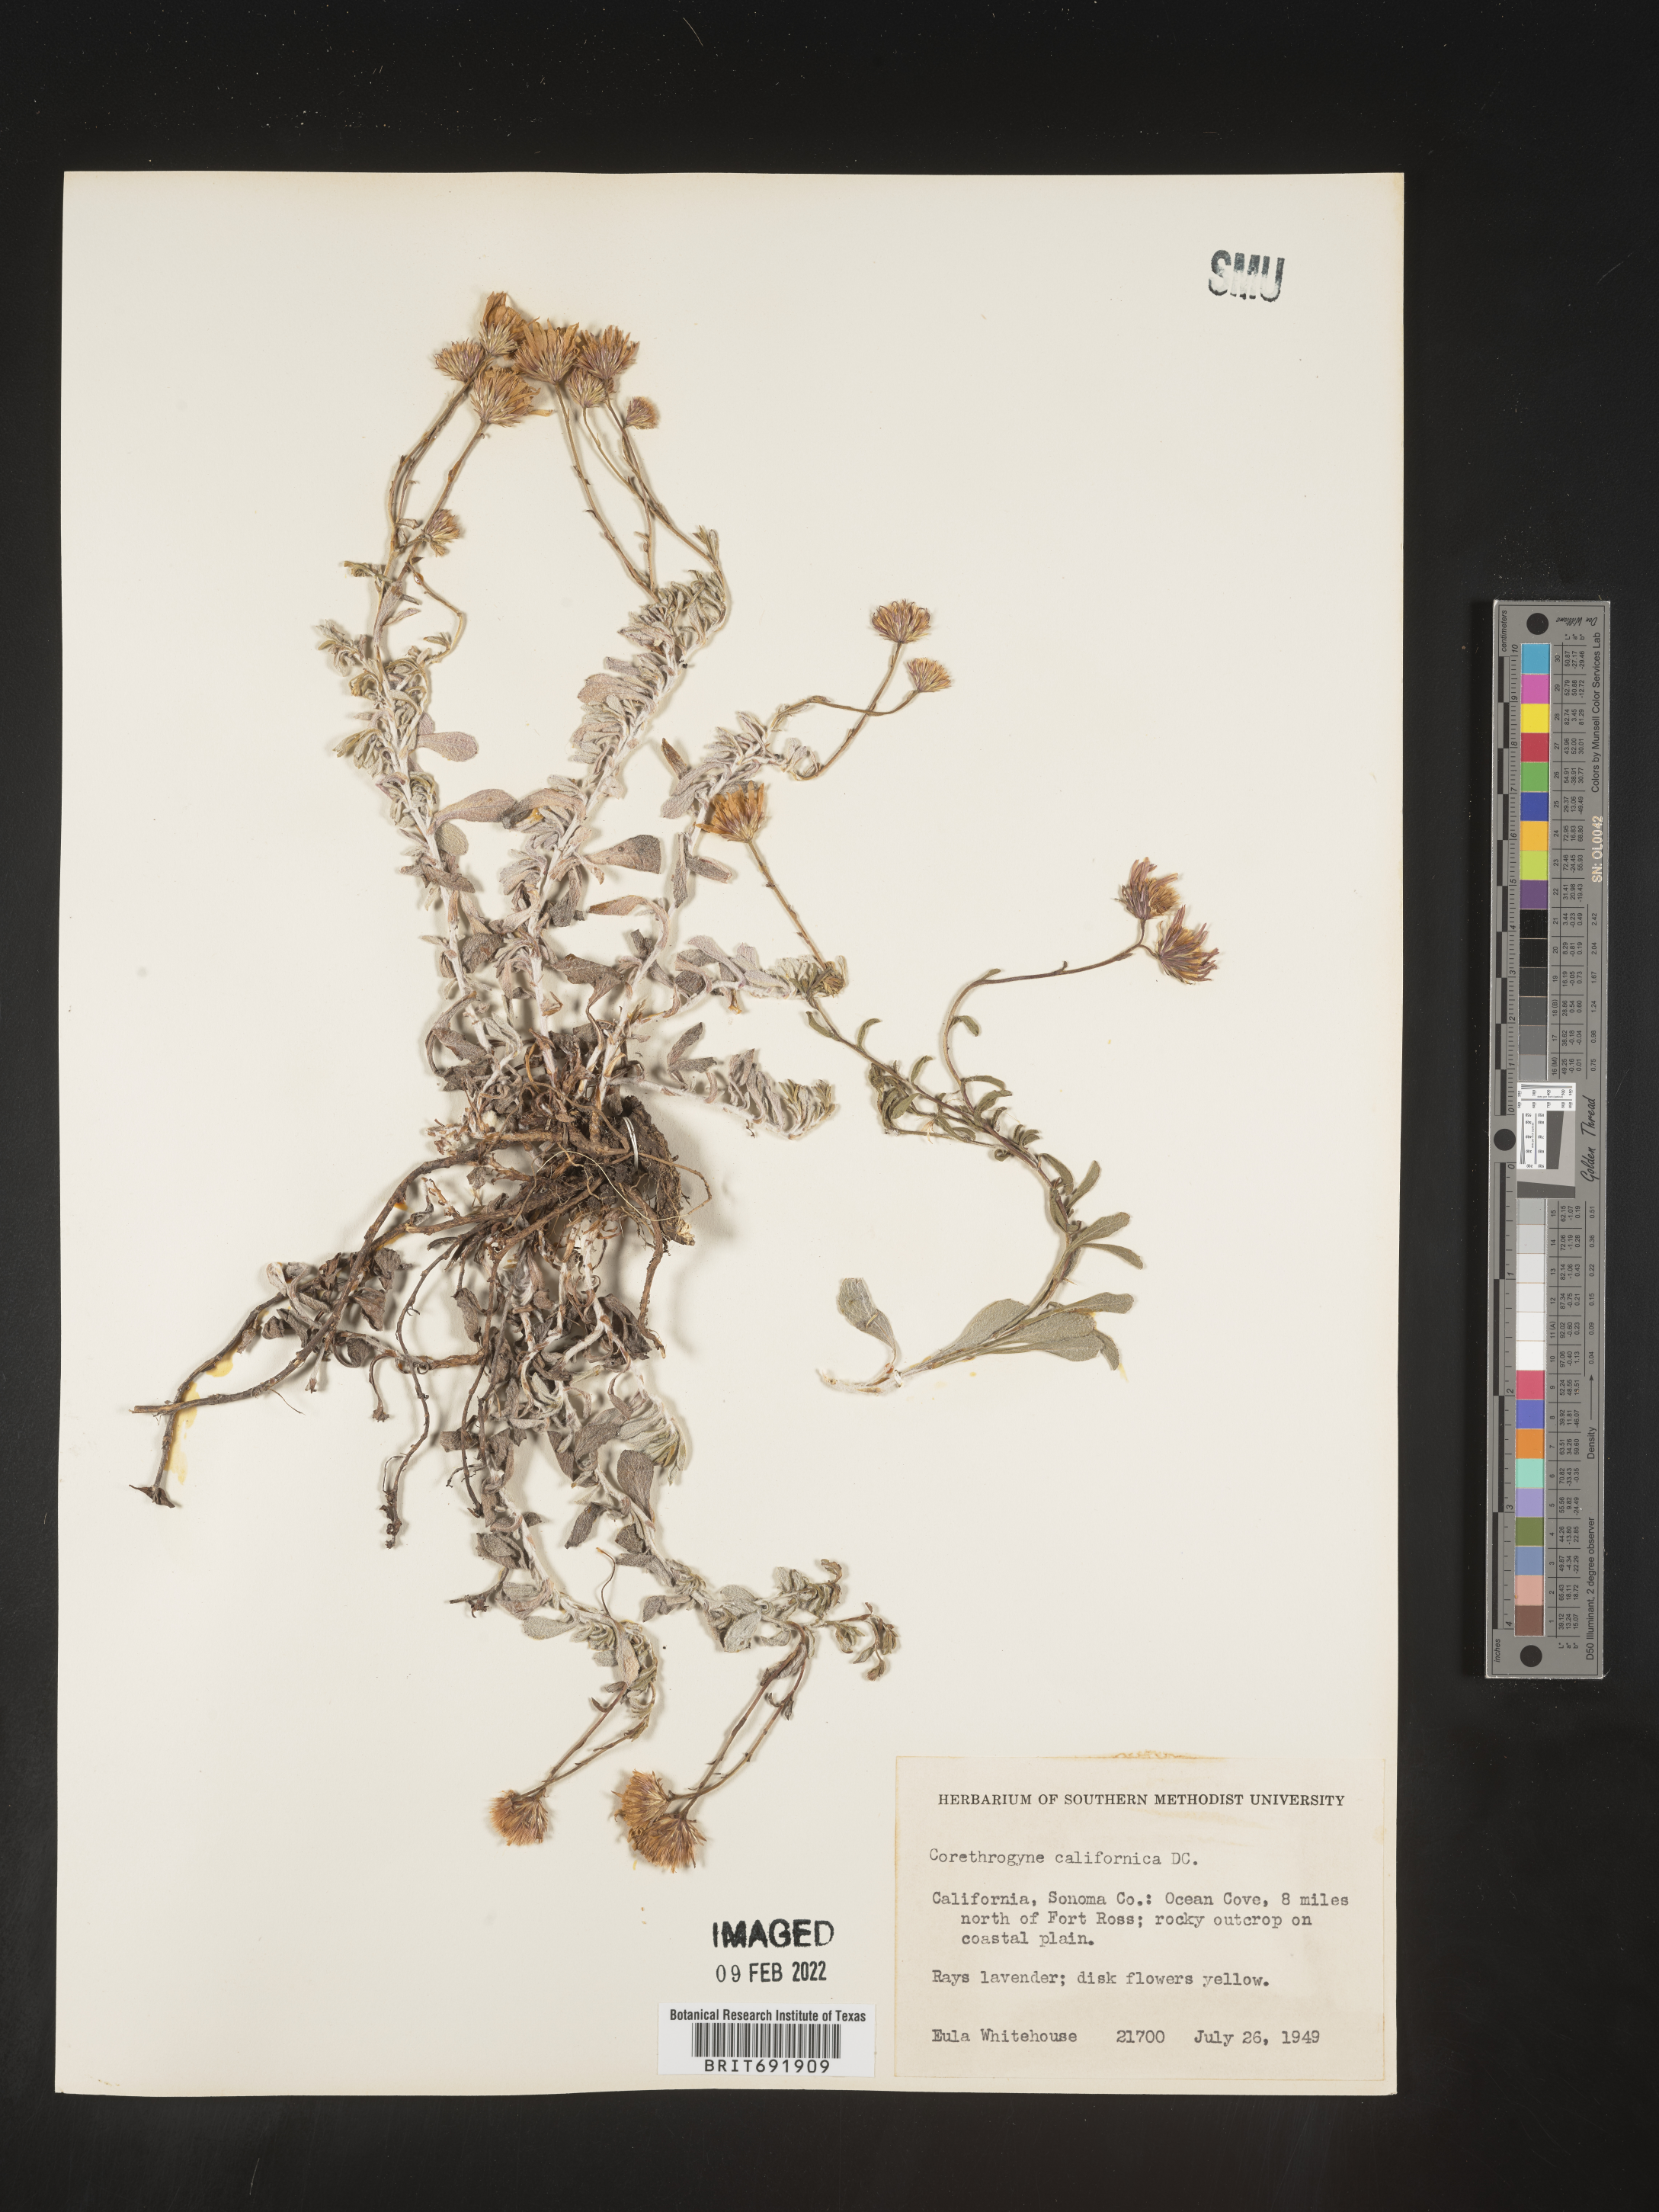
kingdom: Plantae
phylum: Tracheophyta
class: Magnoliopsida
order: Asterales
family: Asteraceae
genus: Corethrogyne
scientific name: Corethrogyne
